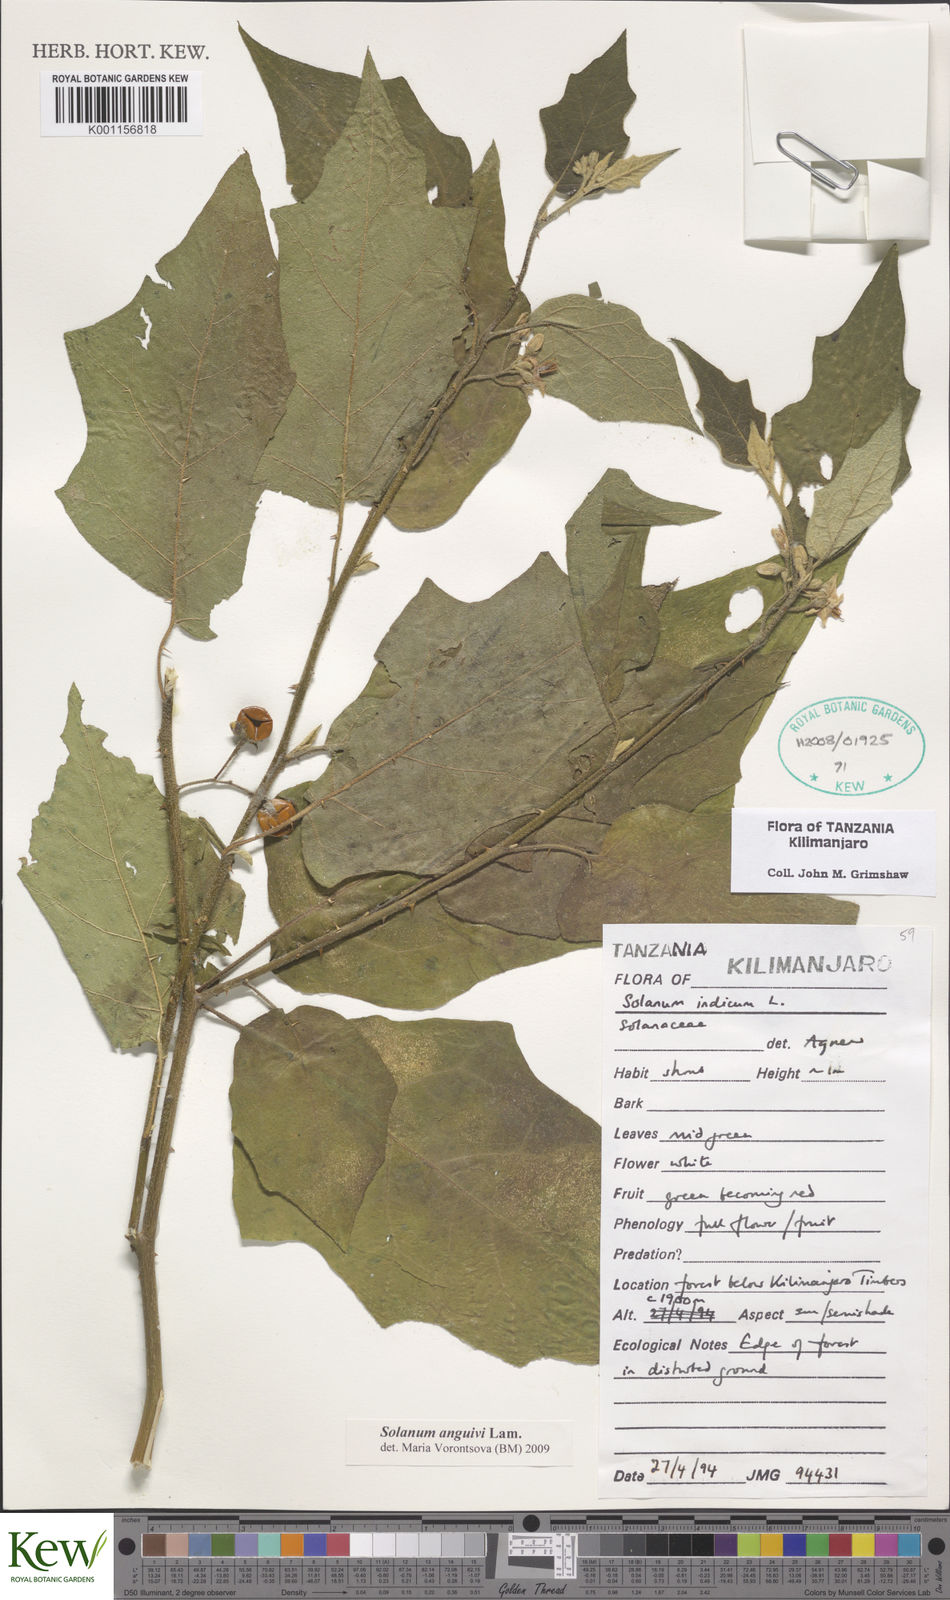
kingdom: Plantae
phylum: Tracheophyta
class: Magnoliopsida
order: Solanales
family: Solanaceae
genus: Solanum
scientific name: Solanum anguivi
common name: Forest bitterberry
